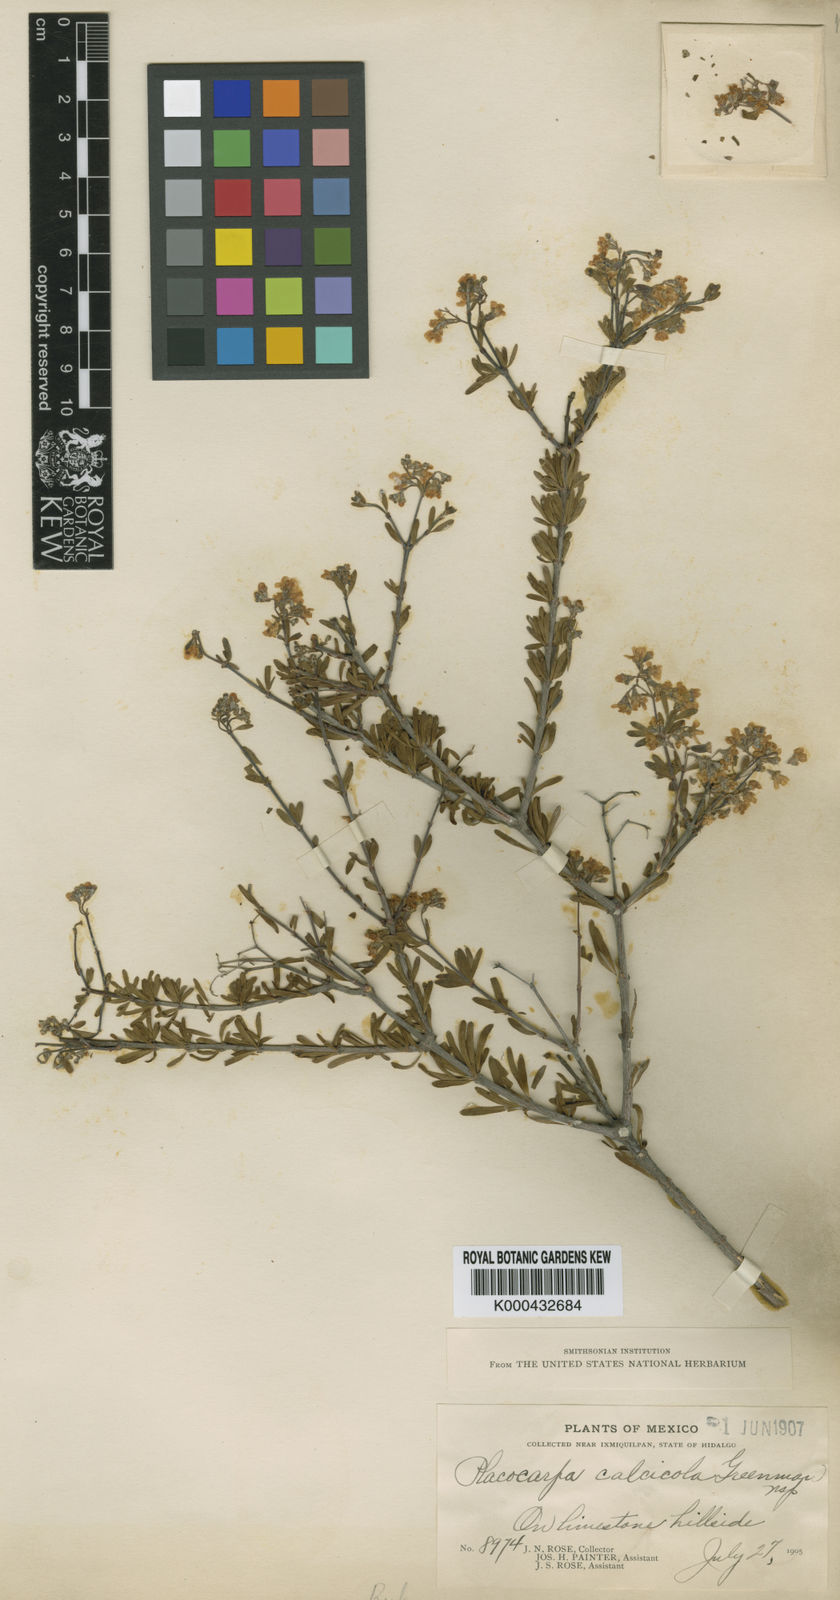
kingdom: Plantae
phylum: Tracheophyta
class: Magnoliopsida
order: Gentianales
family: Rubiaceae
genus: Placocarpa
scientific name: Placocarpa
